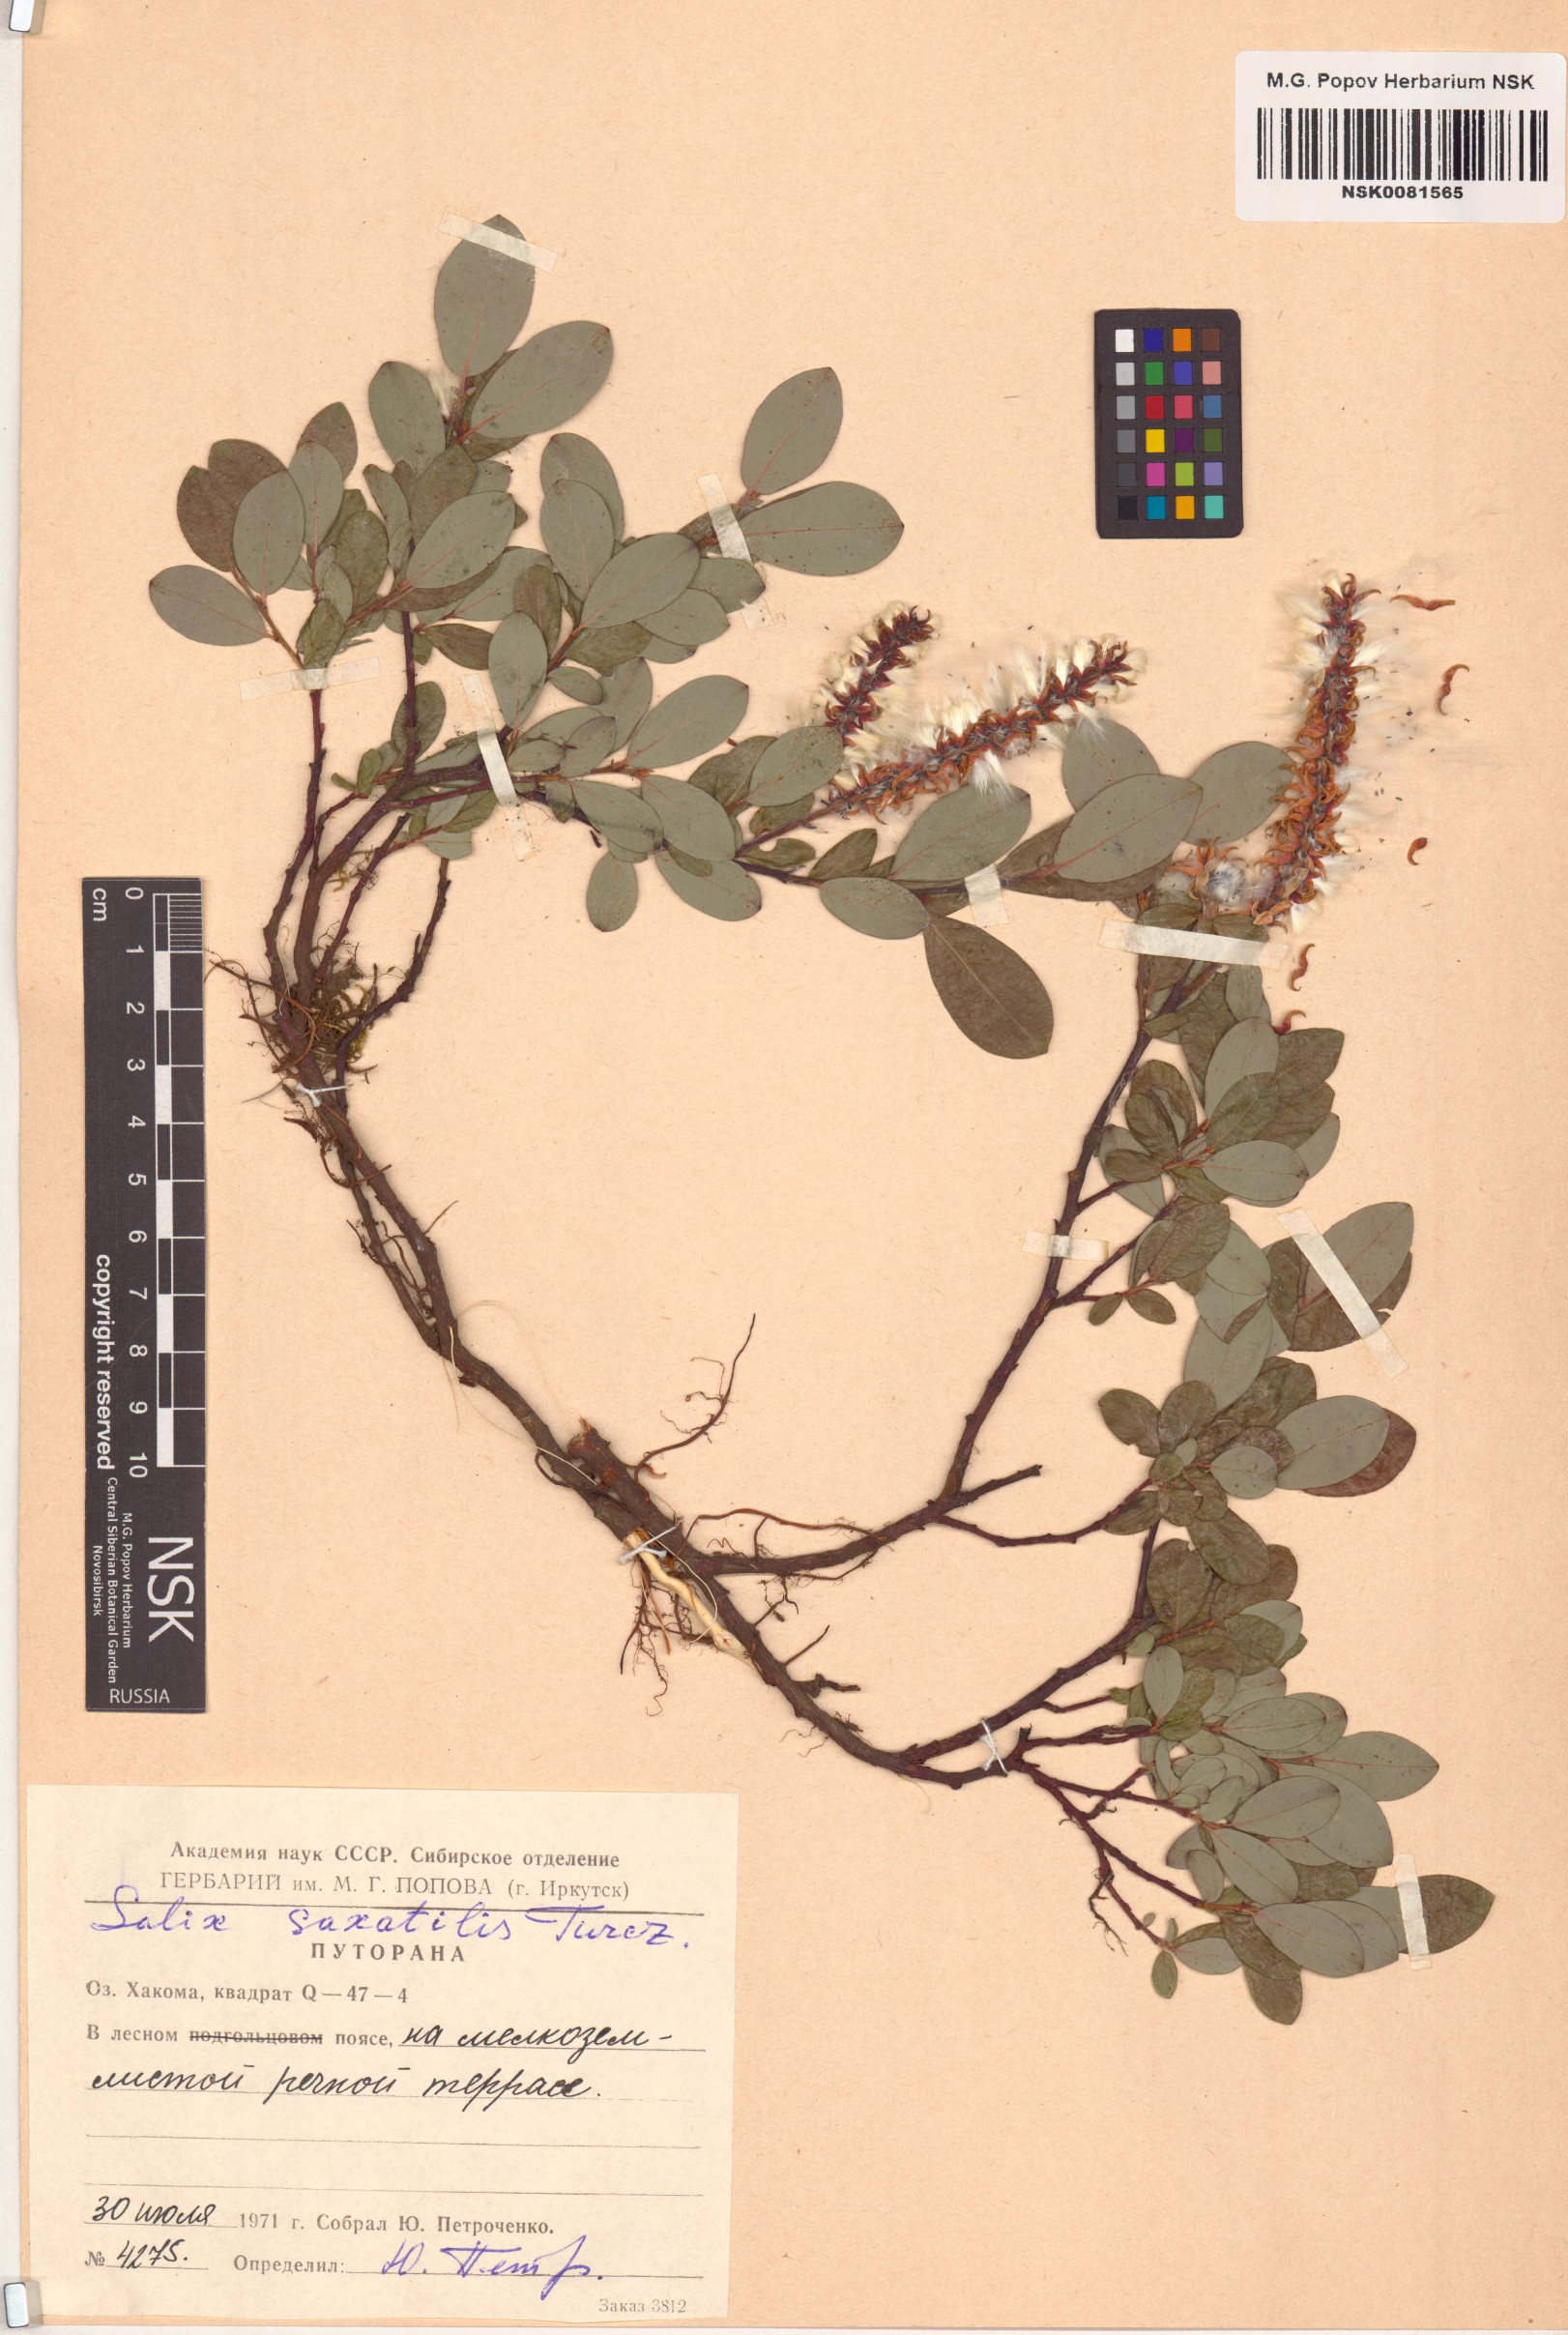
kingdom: Plantae
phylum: Tracheophyta
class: Magnoliopsida
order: Malpighiales
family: Salicaceae
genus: Salix
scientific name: Salix saxatilis
